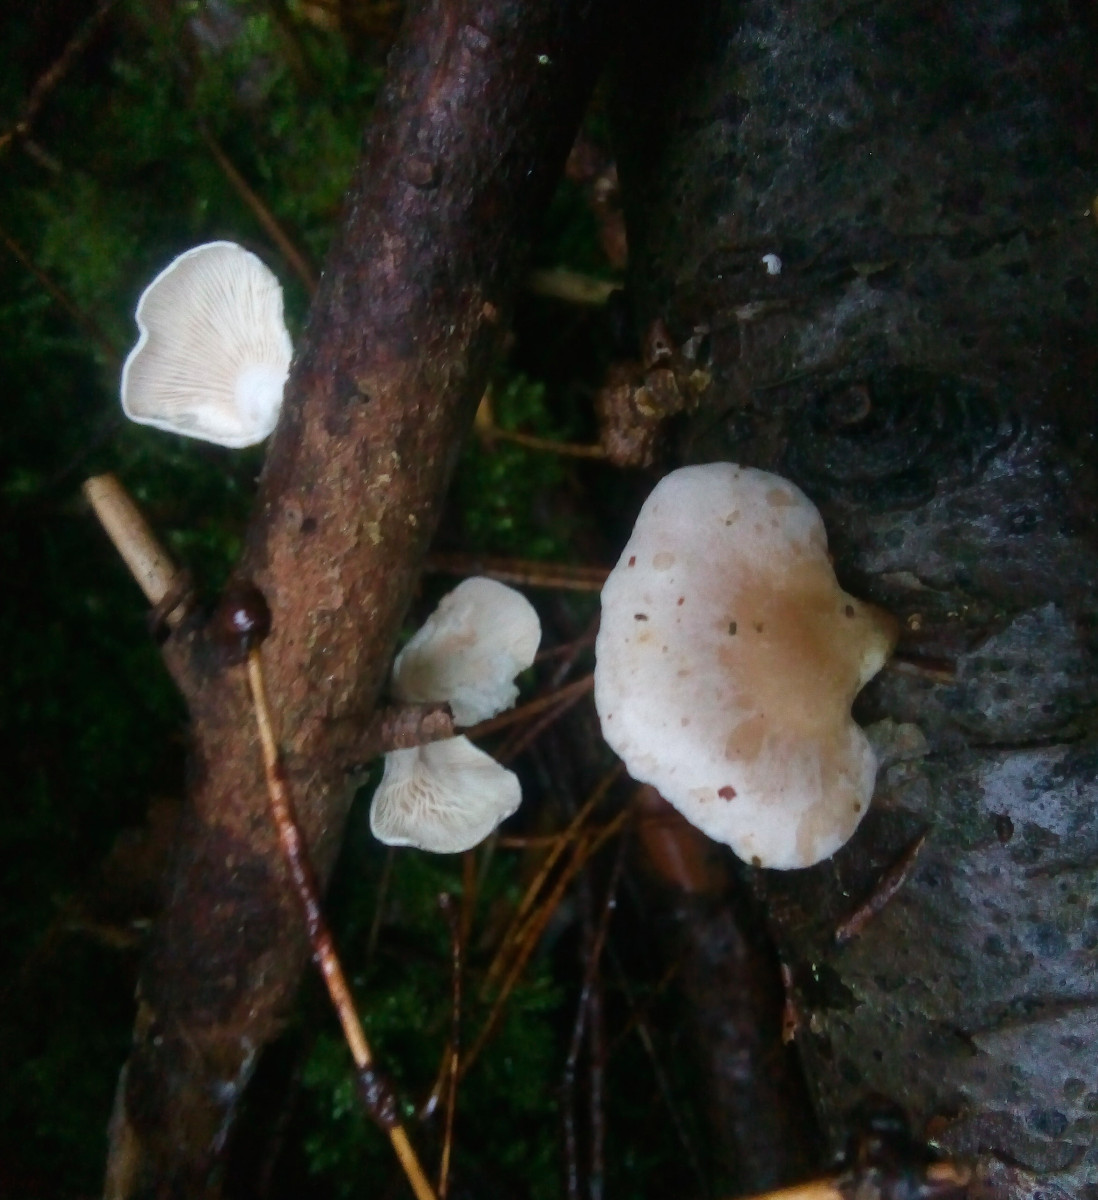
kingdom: Fungi
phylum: Basidiomycota
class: Agaricomycetes
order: Agaricales
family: Mycenaceae
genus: Panellus
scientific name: Panellus mitis
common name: mild epaulethat
